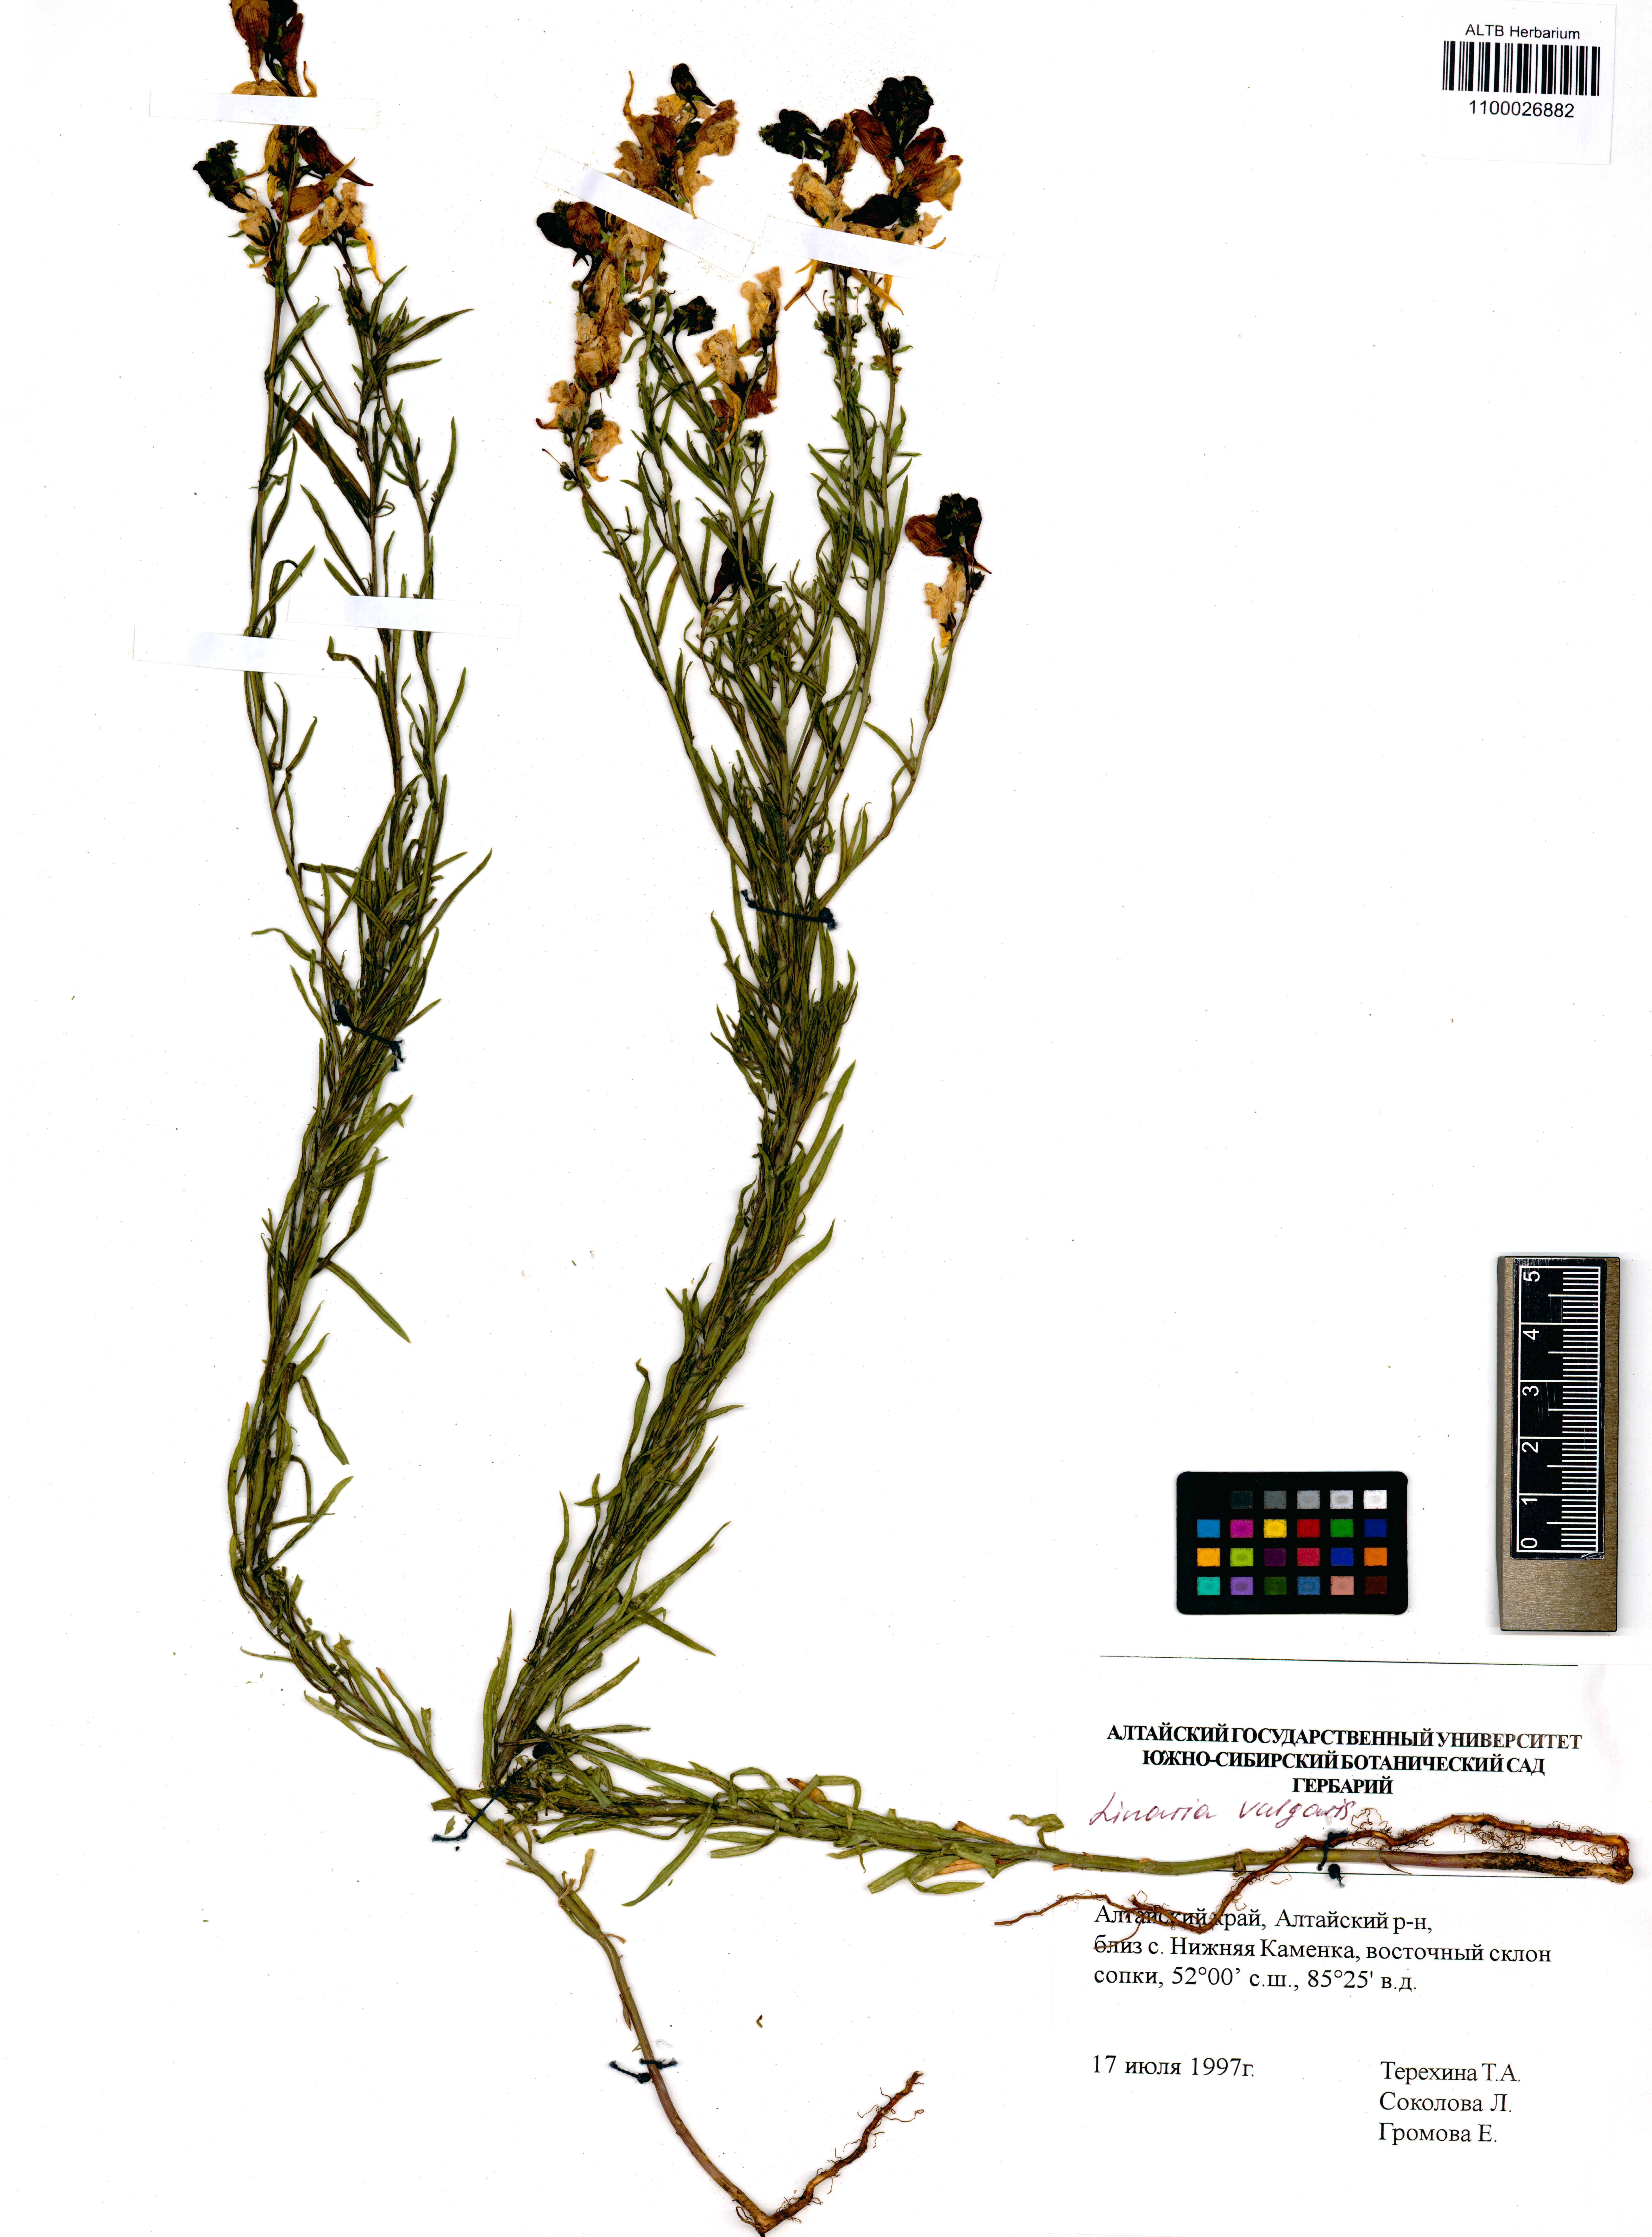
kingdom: Plantae
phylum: Tracheophyta
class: Magnoliopsida
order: Lamiales
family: Plantaginaceae
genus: Linaria
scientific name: Linaria vulgaris
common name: Butter and eggs
